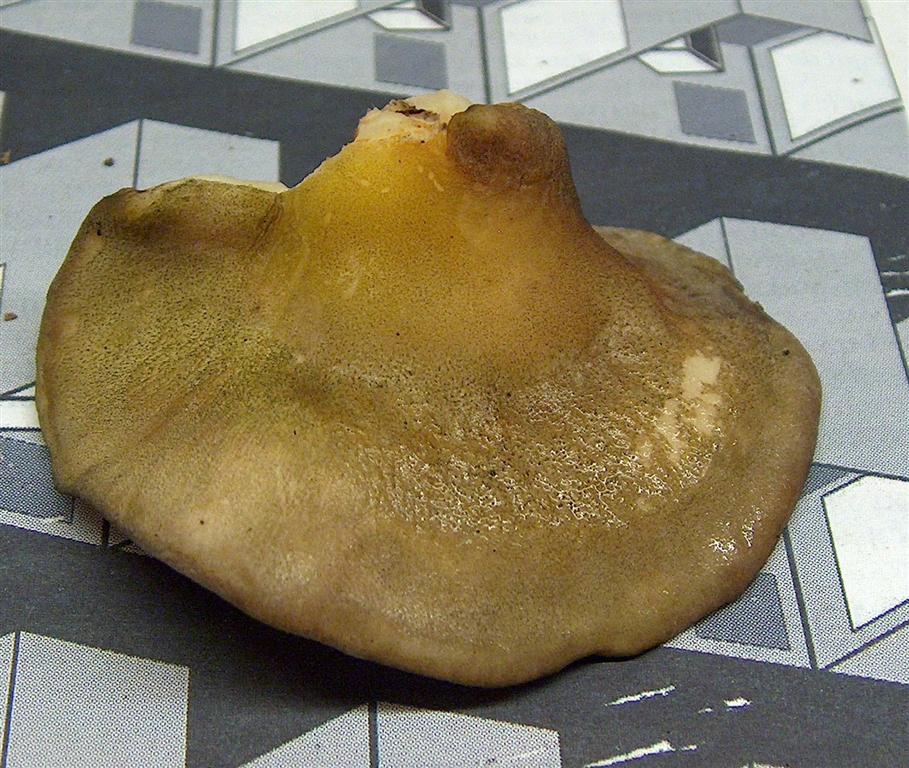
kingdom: Fungi
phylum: Basidiomycota
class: Agaricomycetes
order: Agaricales
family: Sarcomyxaceae
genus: Sarcomyxa
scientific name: Sarcomyxa serotina
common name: gummihat
